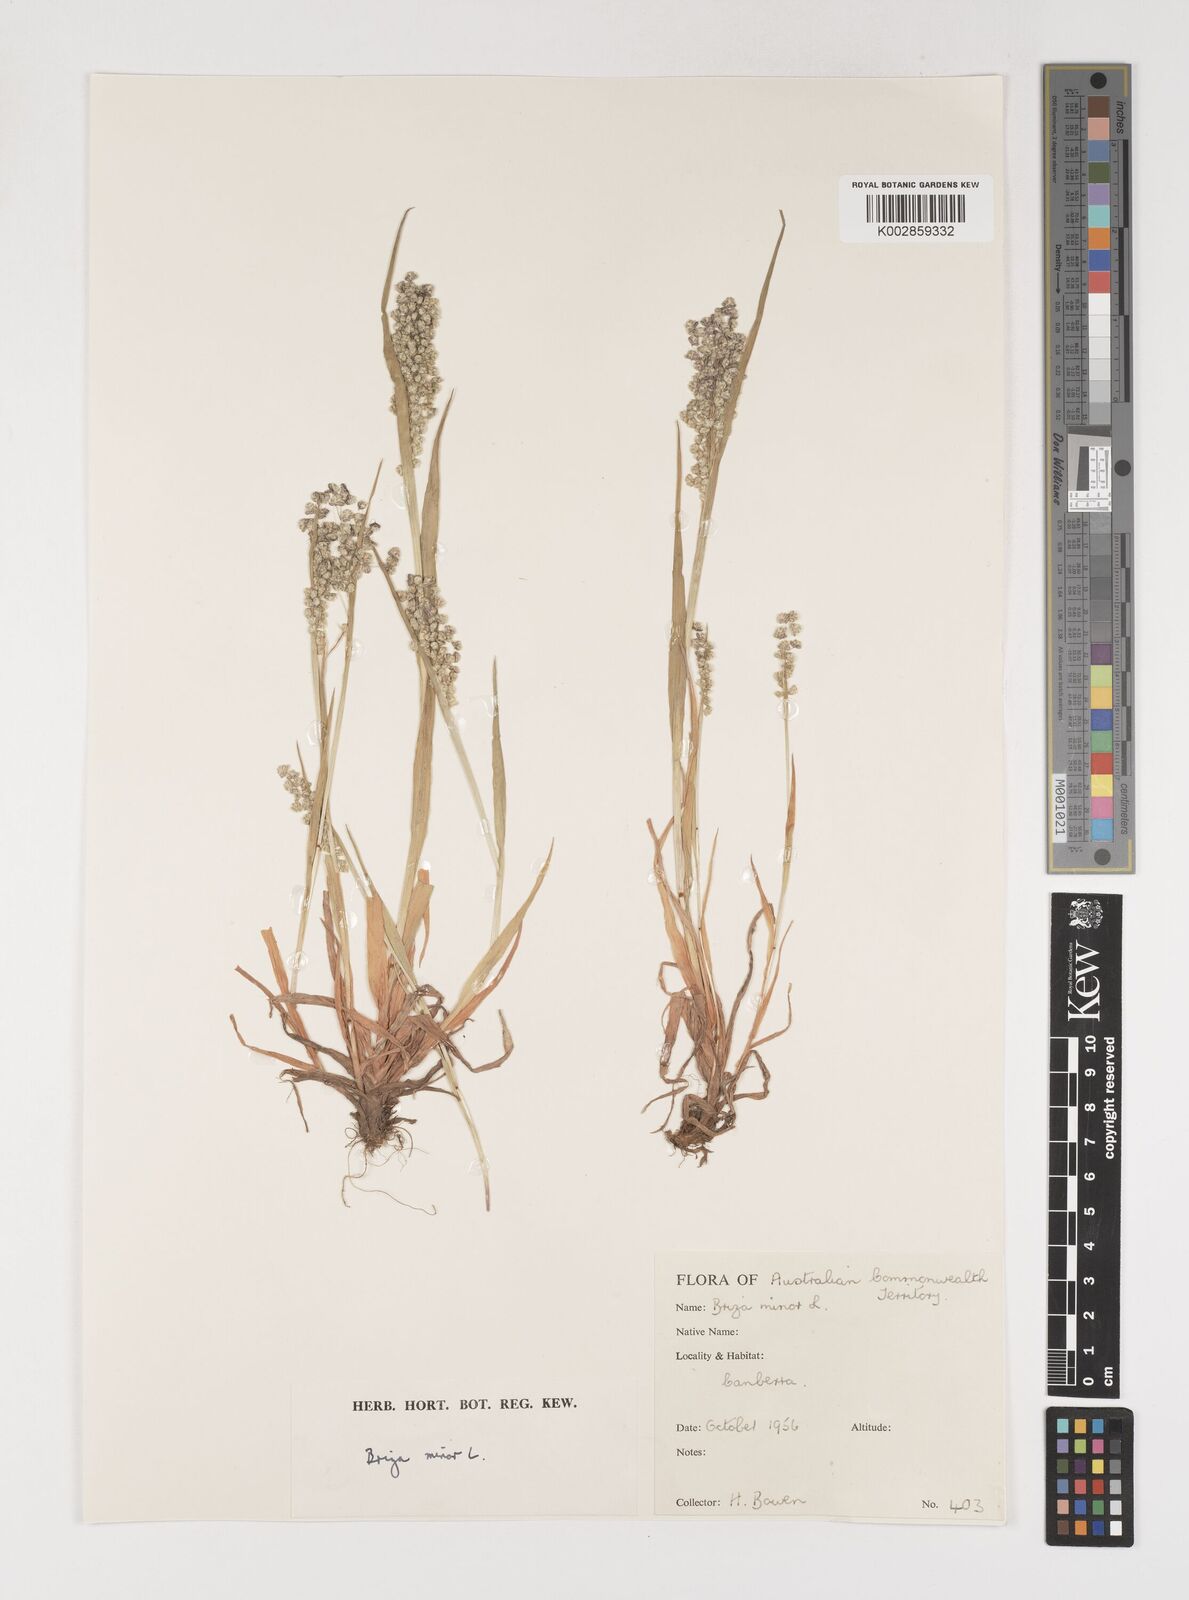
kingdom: Plantae
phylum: Tracheophyta
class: Liliopsida
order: Poales
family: Poaceae
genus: Briza
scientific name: Briza minor
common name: Lesser quaking-grass
